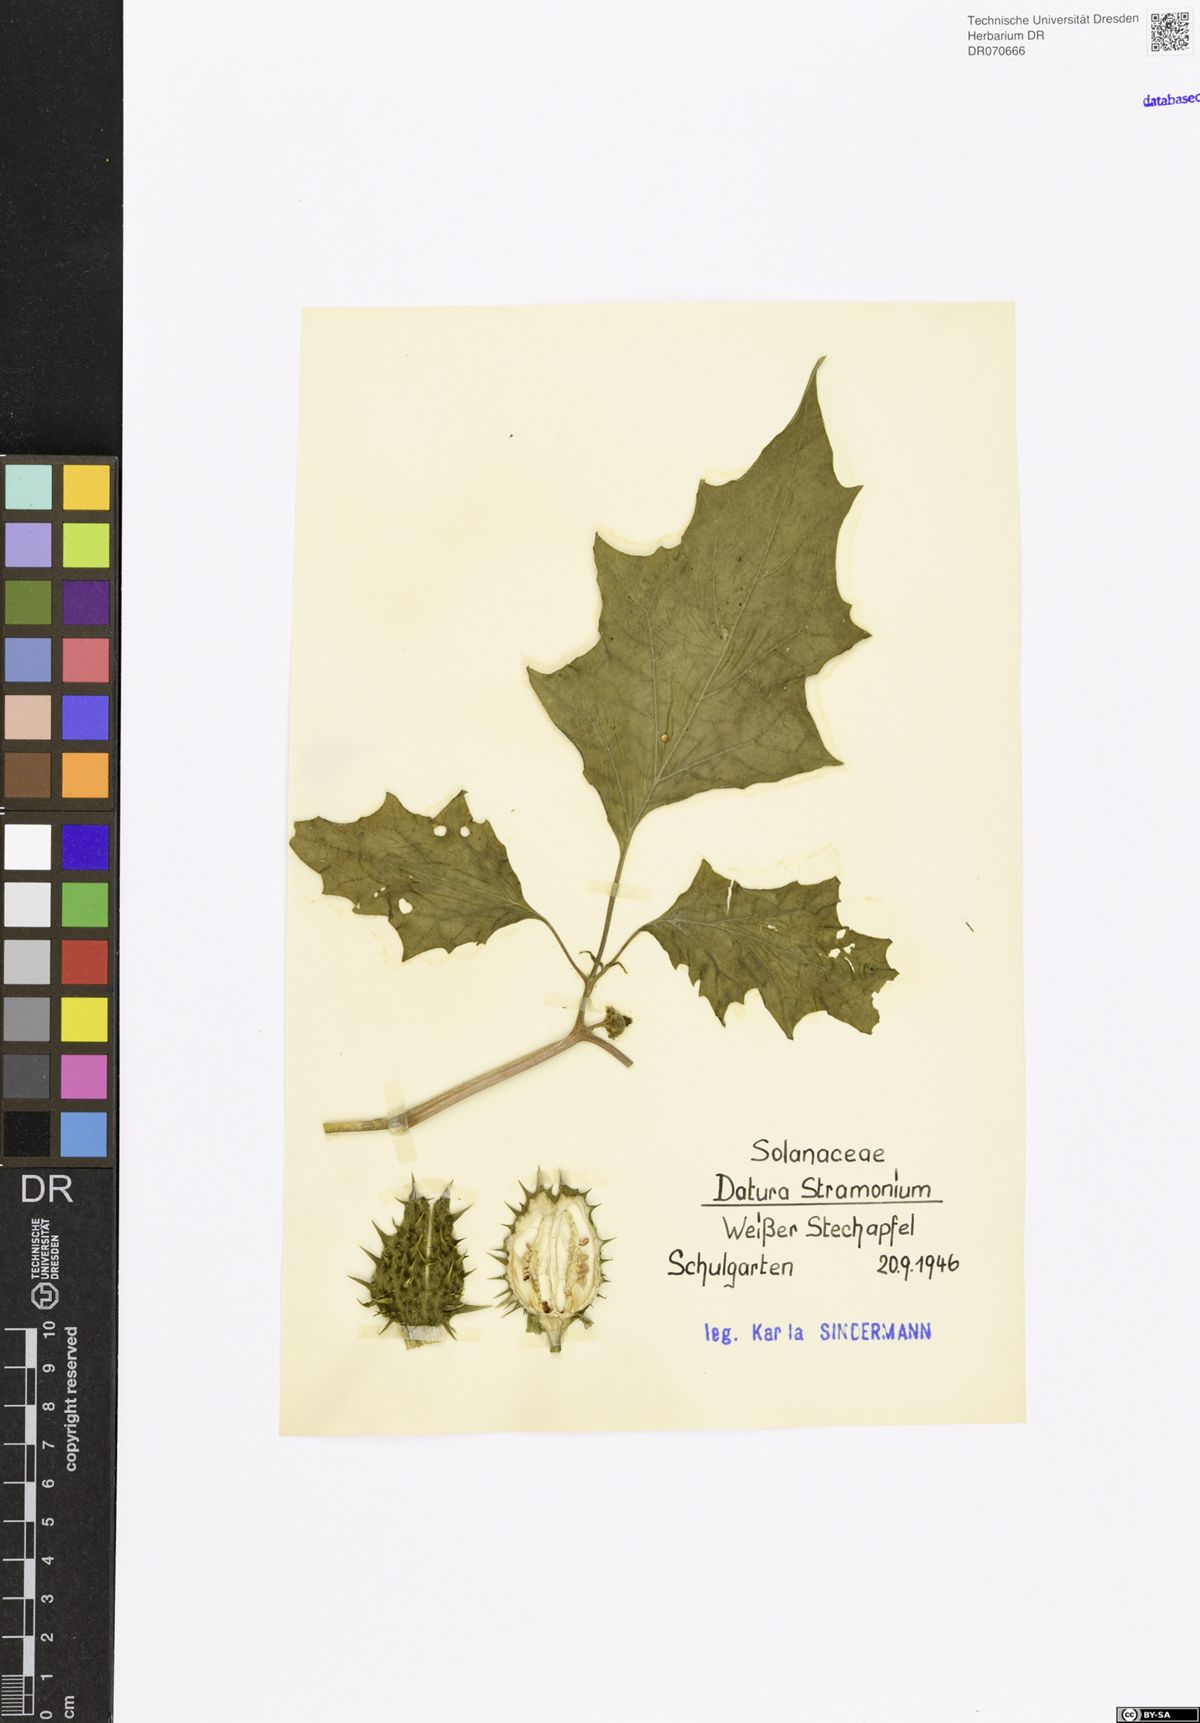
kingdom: Plantae
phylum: Tracheophyta
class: Magnoliopsida
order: Solanales
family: Solanaceae
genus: Datura
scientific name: Datura stramonium
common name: Thorn-apple
